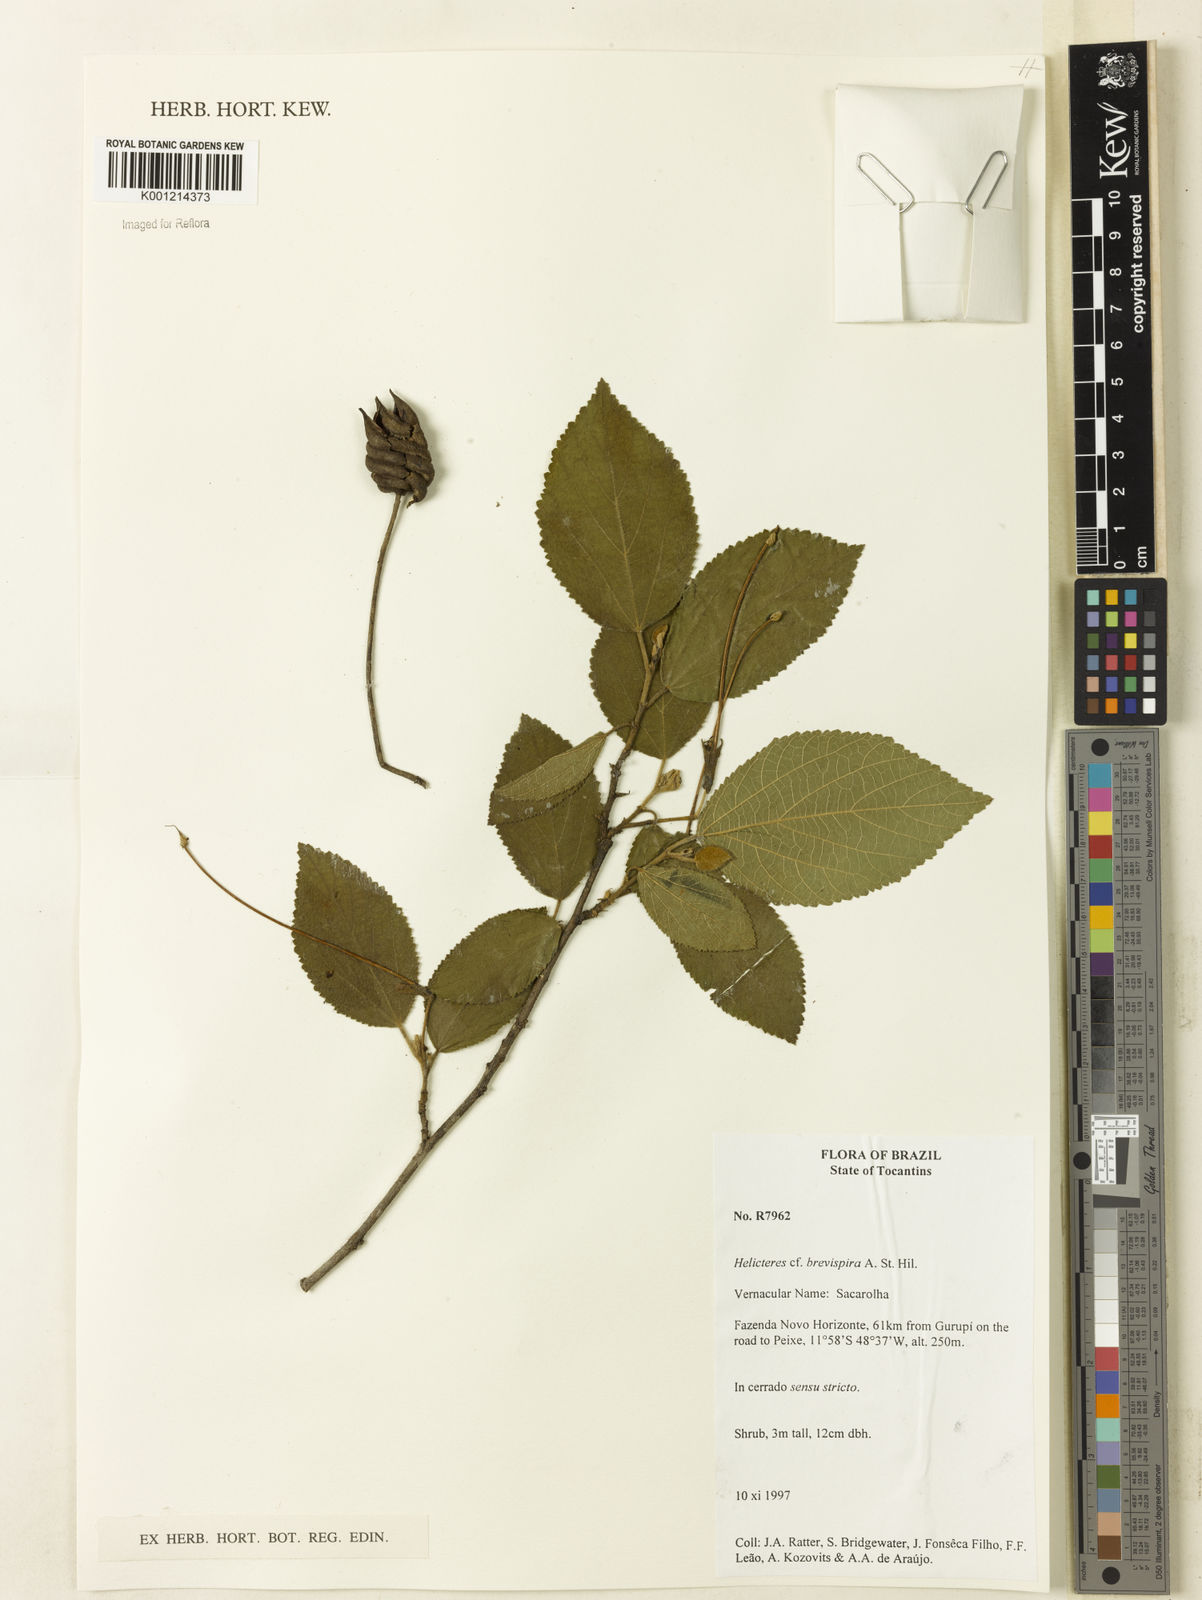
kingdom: Plantae
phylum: Tracheophyta
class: Magnoliopsida
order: Malvales
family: Malvaceae
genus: Helicteres
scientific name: Helicteres
